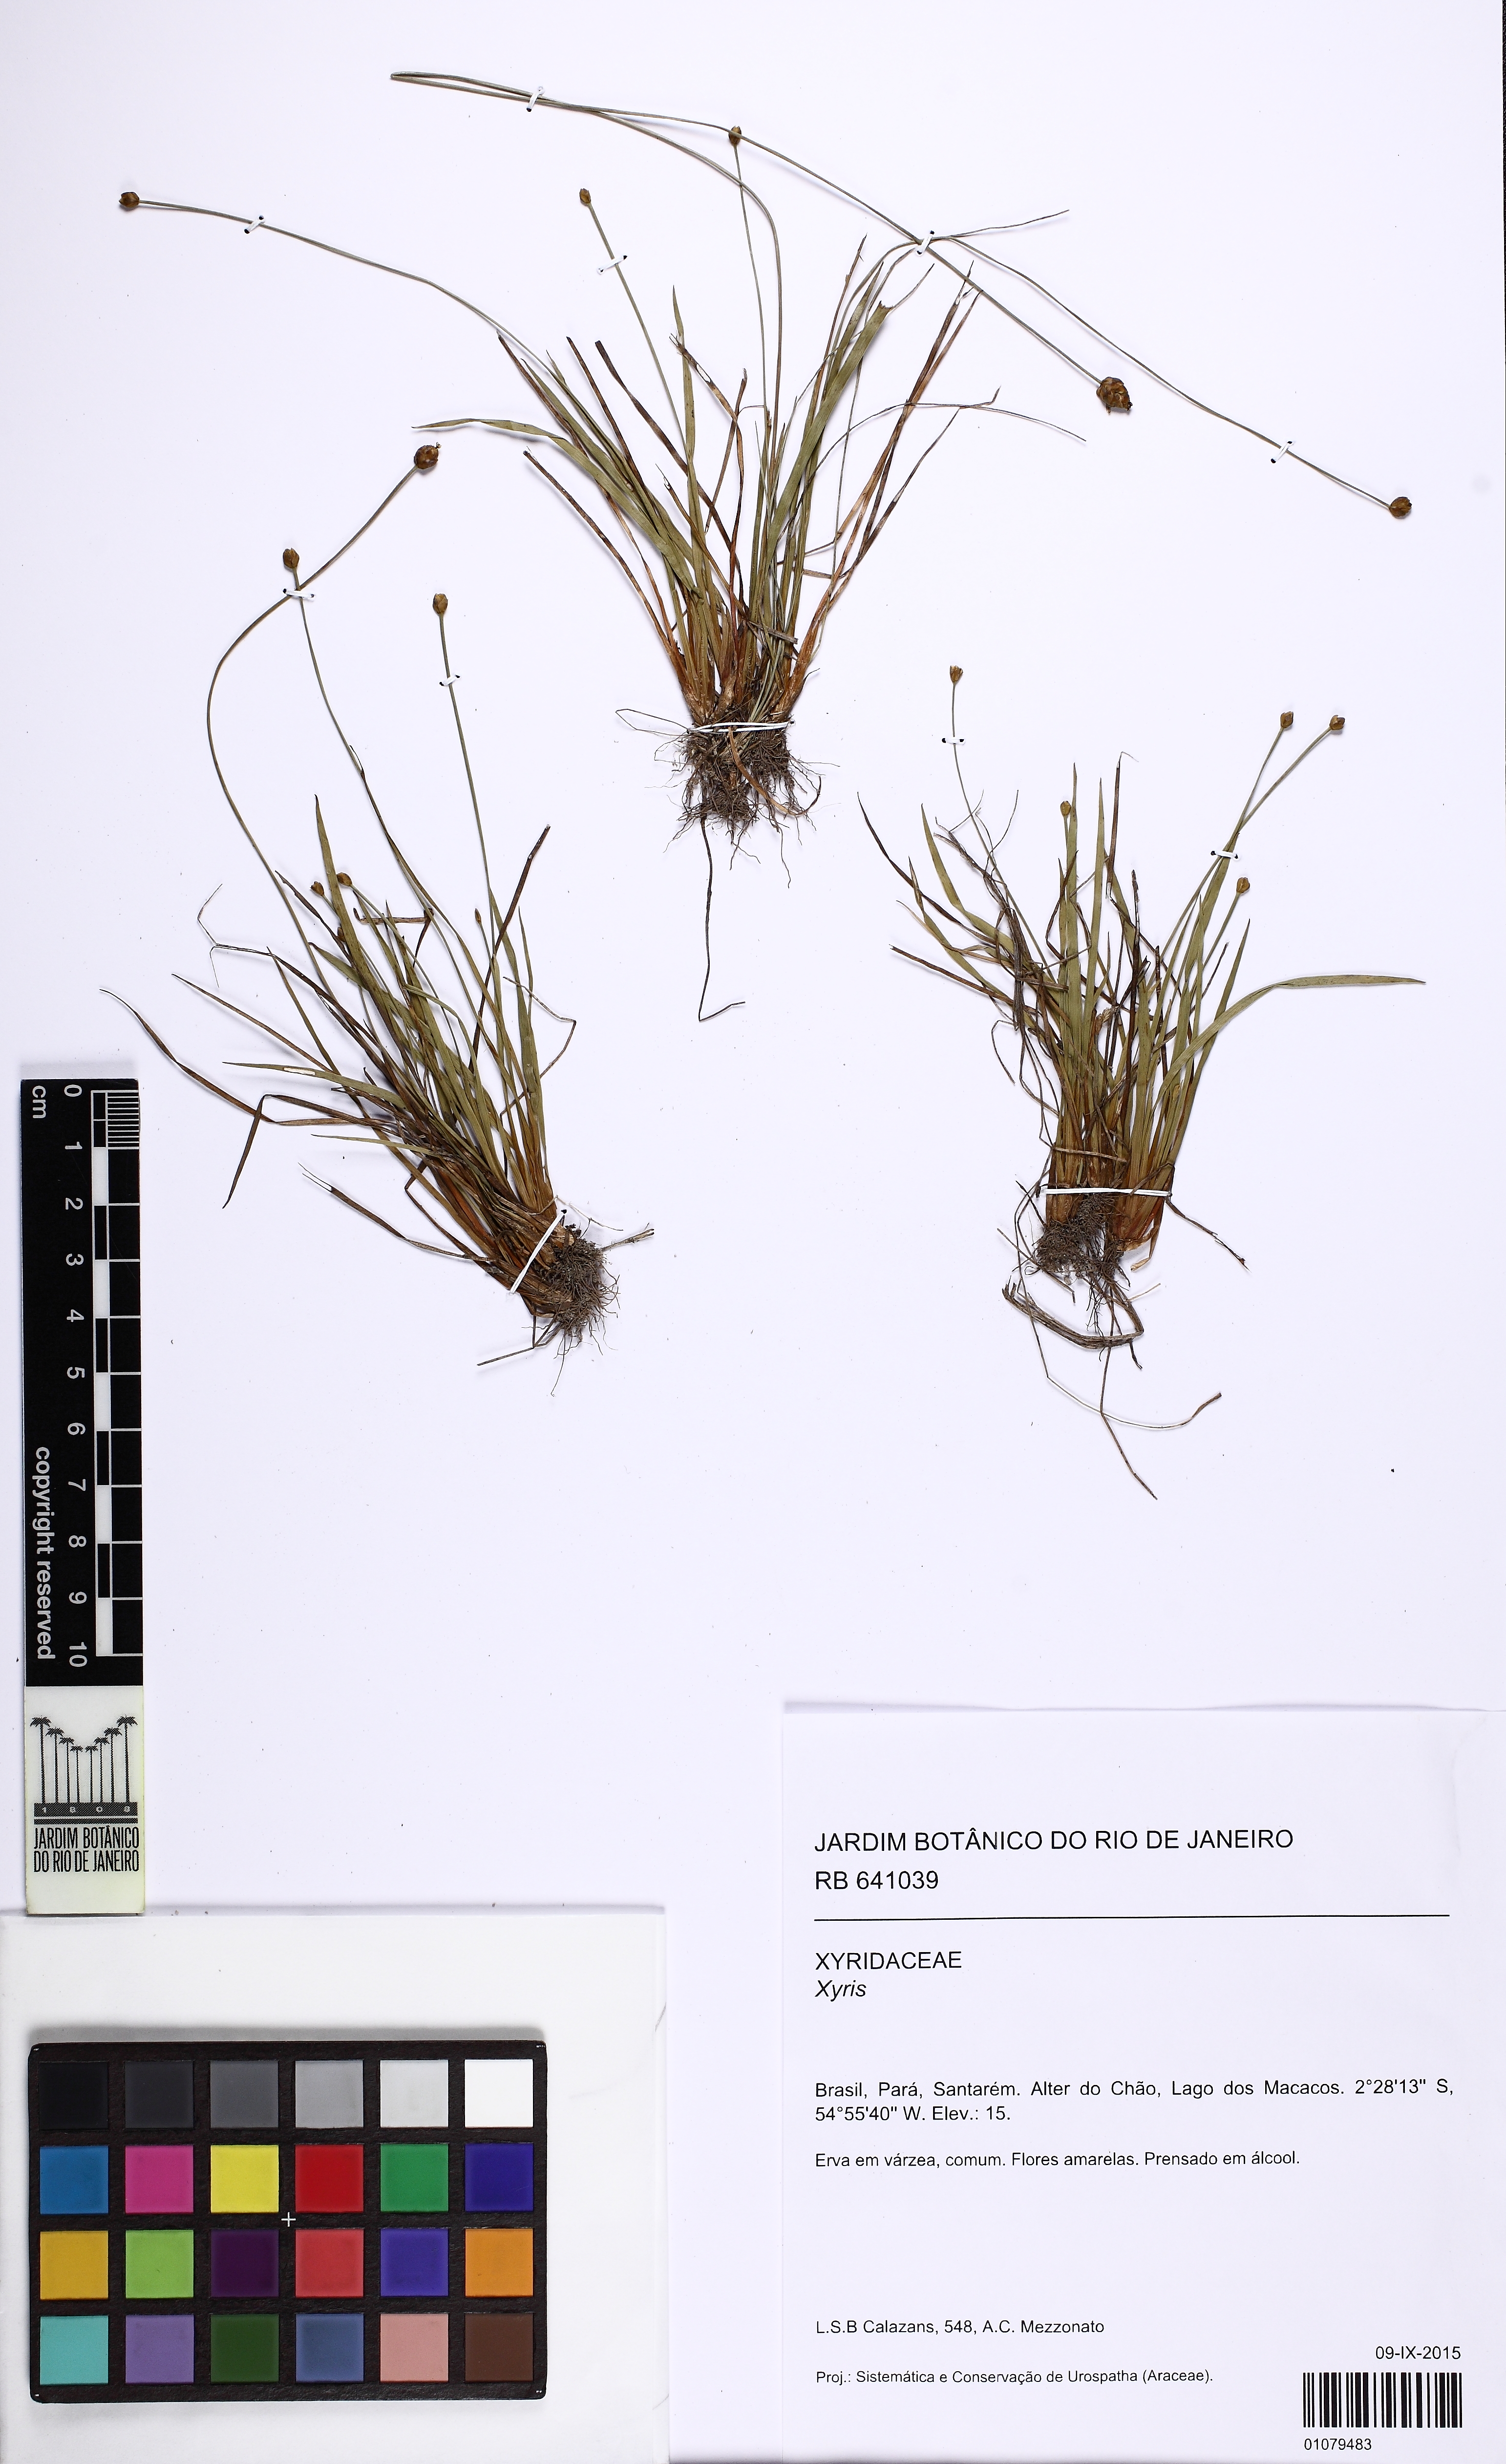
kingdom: Plantae
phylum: Tracheophyta
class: Liliopsida
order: Poales
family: Xyridaceae
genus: Xyris
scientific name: Xyris
